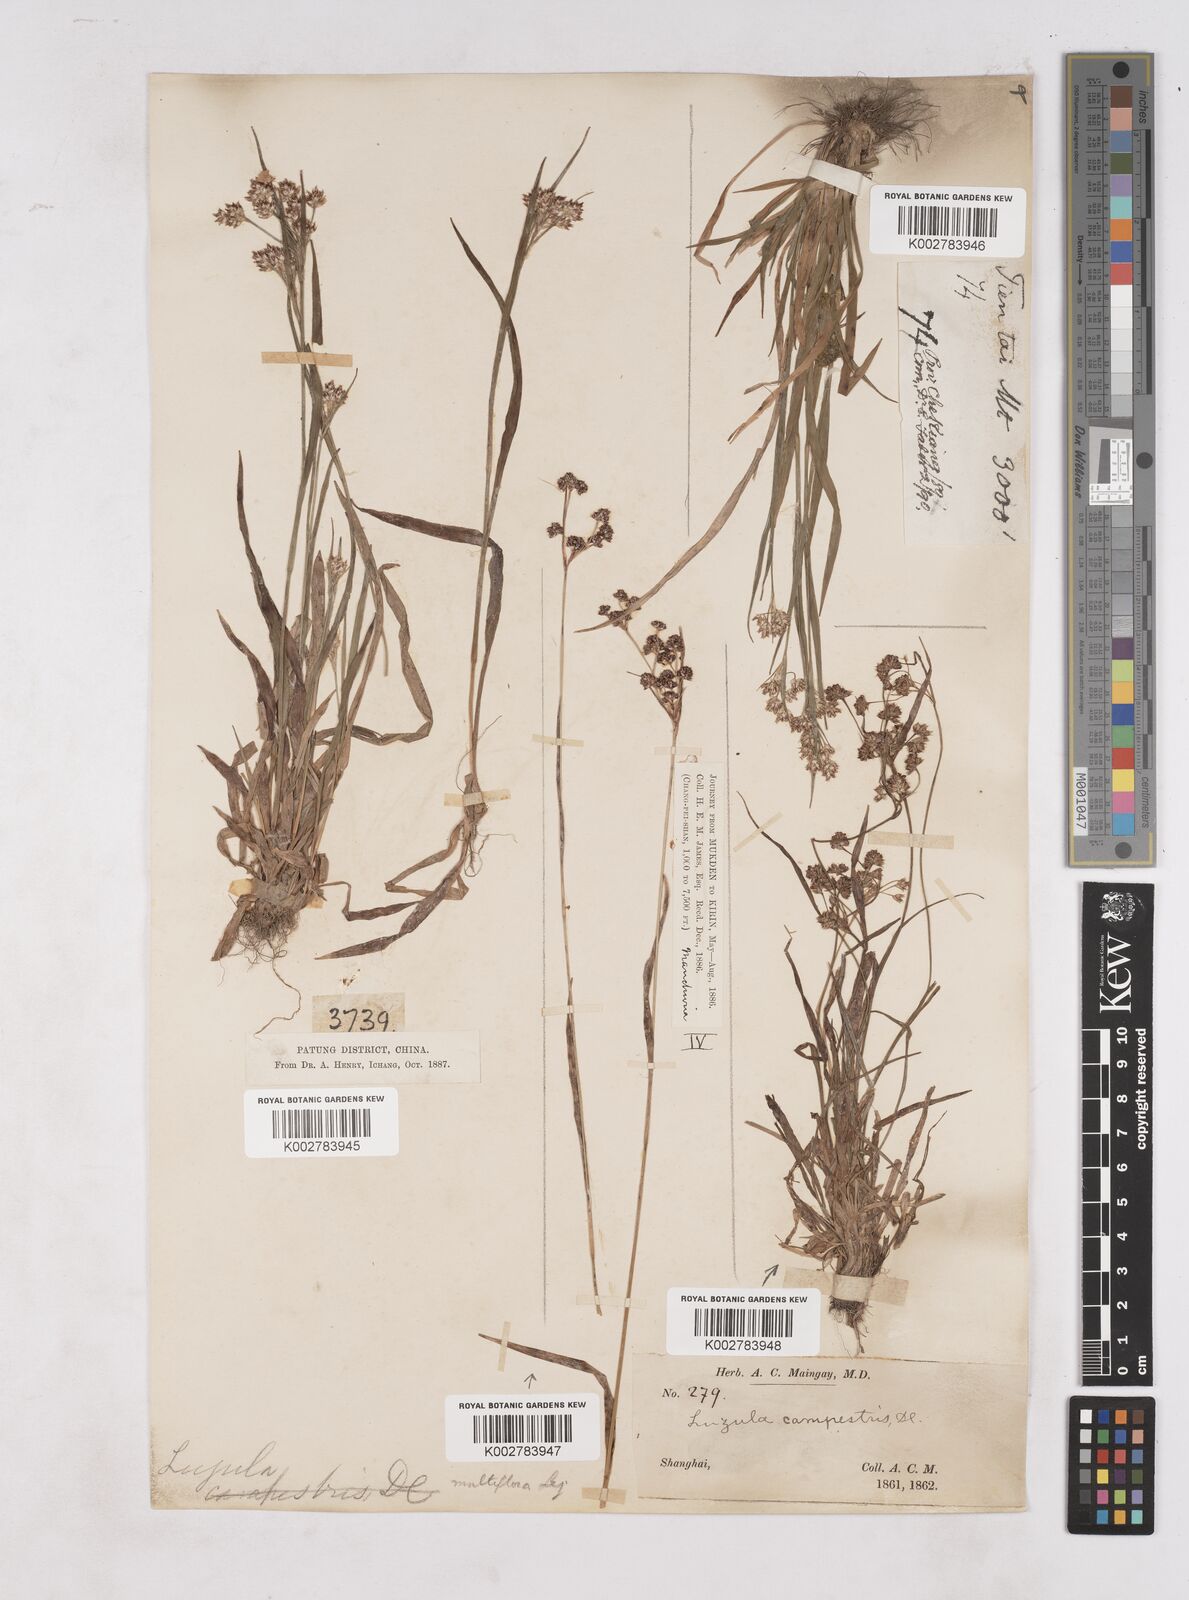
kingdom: Plantae
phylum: Tracheophyta
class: Liliopsida
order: Poales
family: Juncaceae
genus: Luzula
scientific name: Luzula campestris
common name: Field wood-rush
